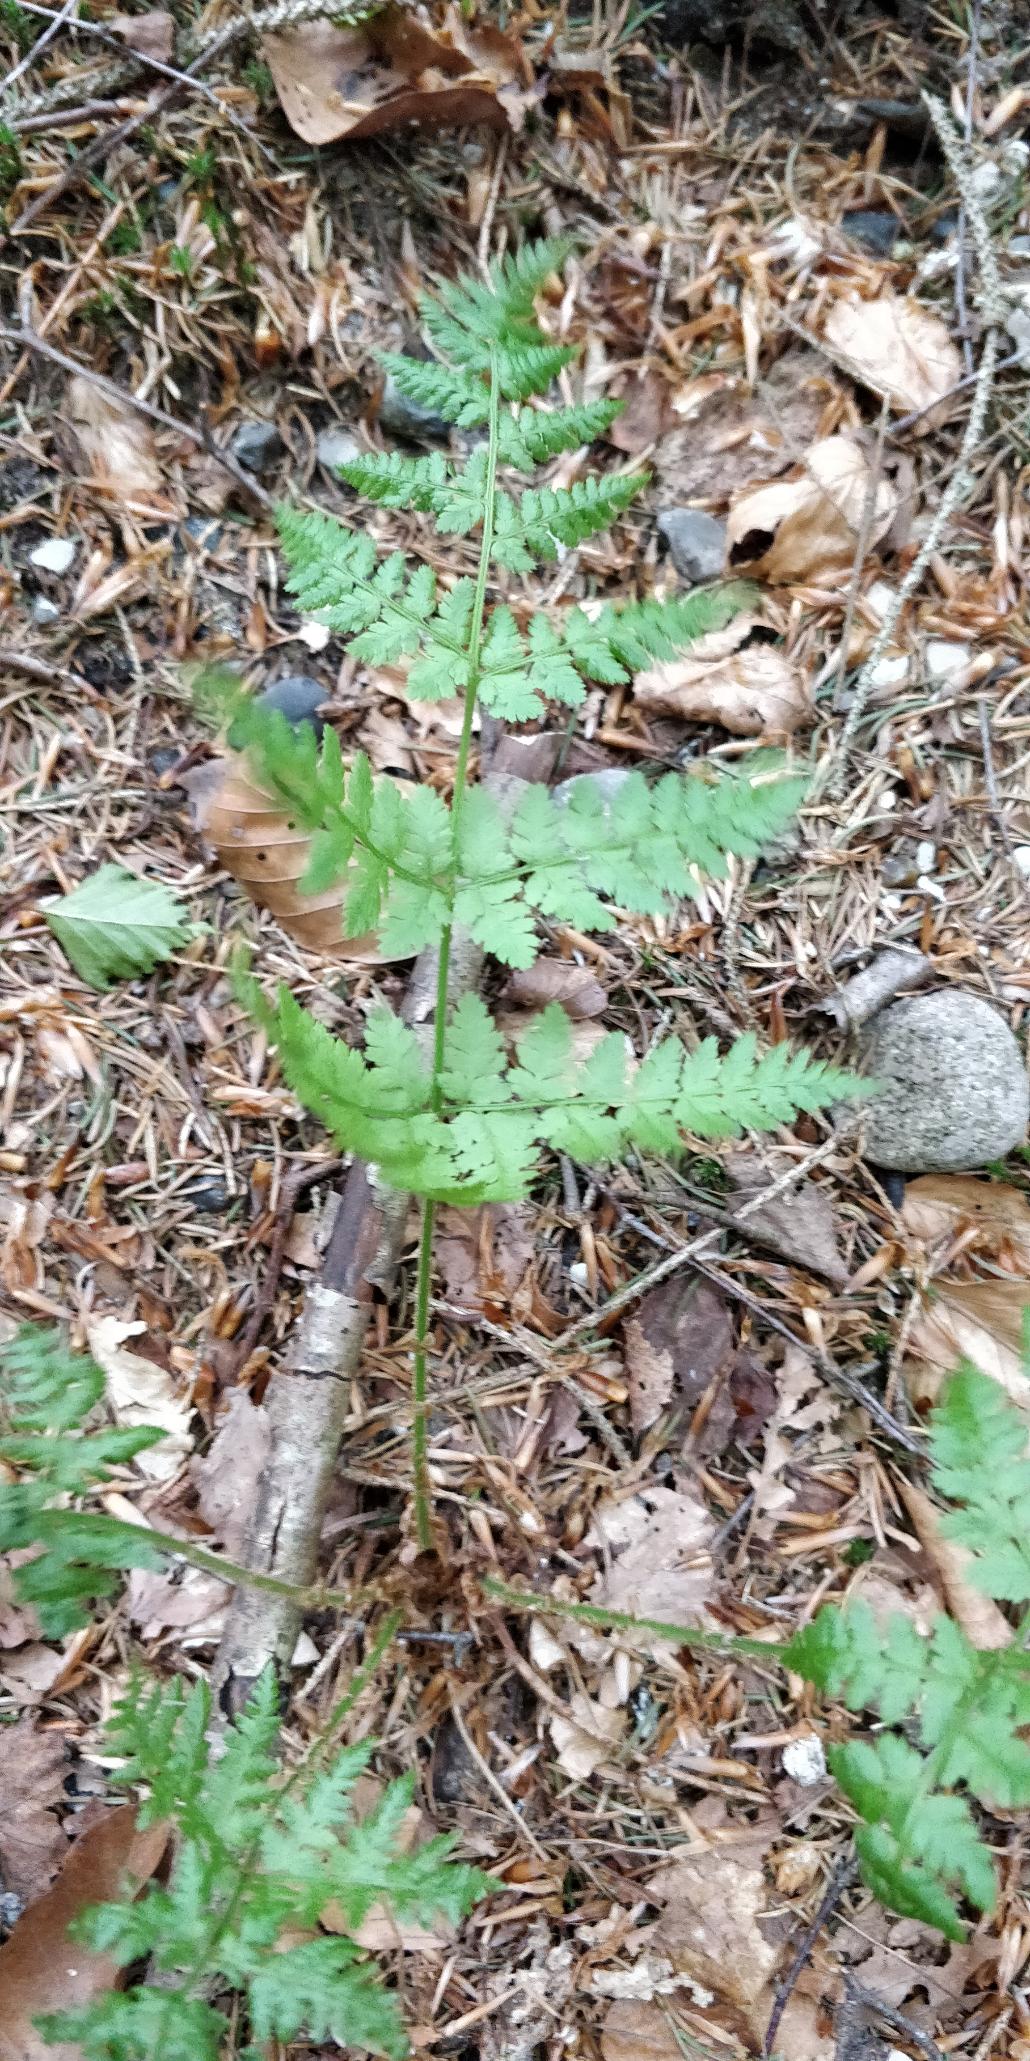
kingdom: Plantae
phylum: Tracheophyta
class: Polypodiopsida
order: Polypodiales
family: Dryopteridaceae
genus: Dryopteris
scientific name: Dryopteris carthusiana
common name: Smalbladet mangeløv
